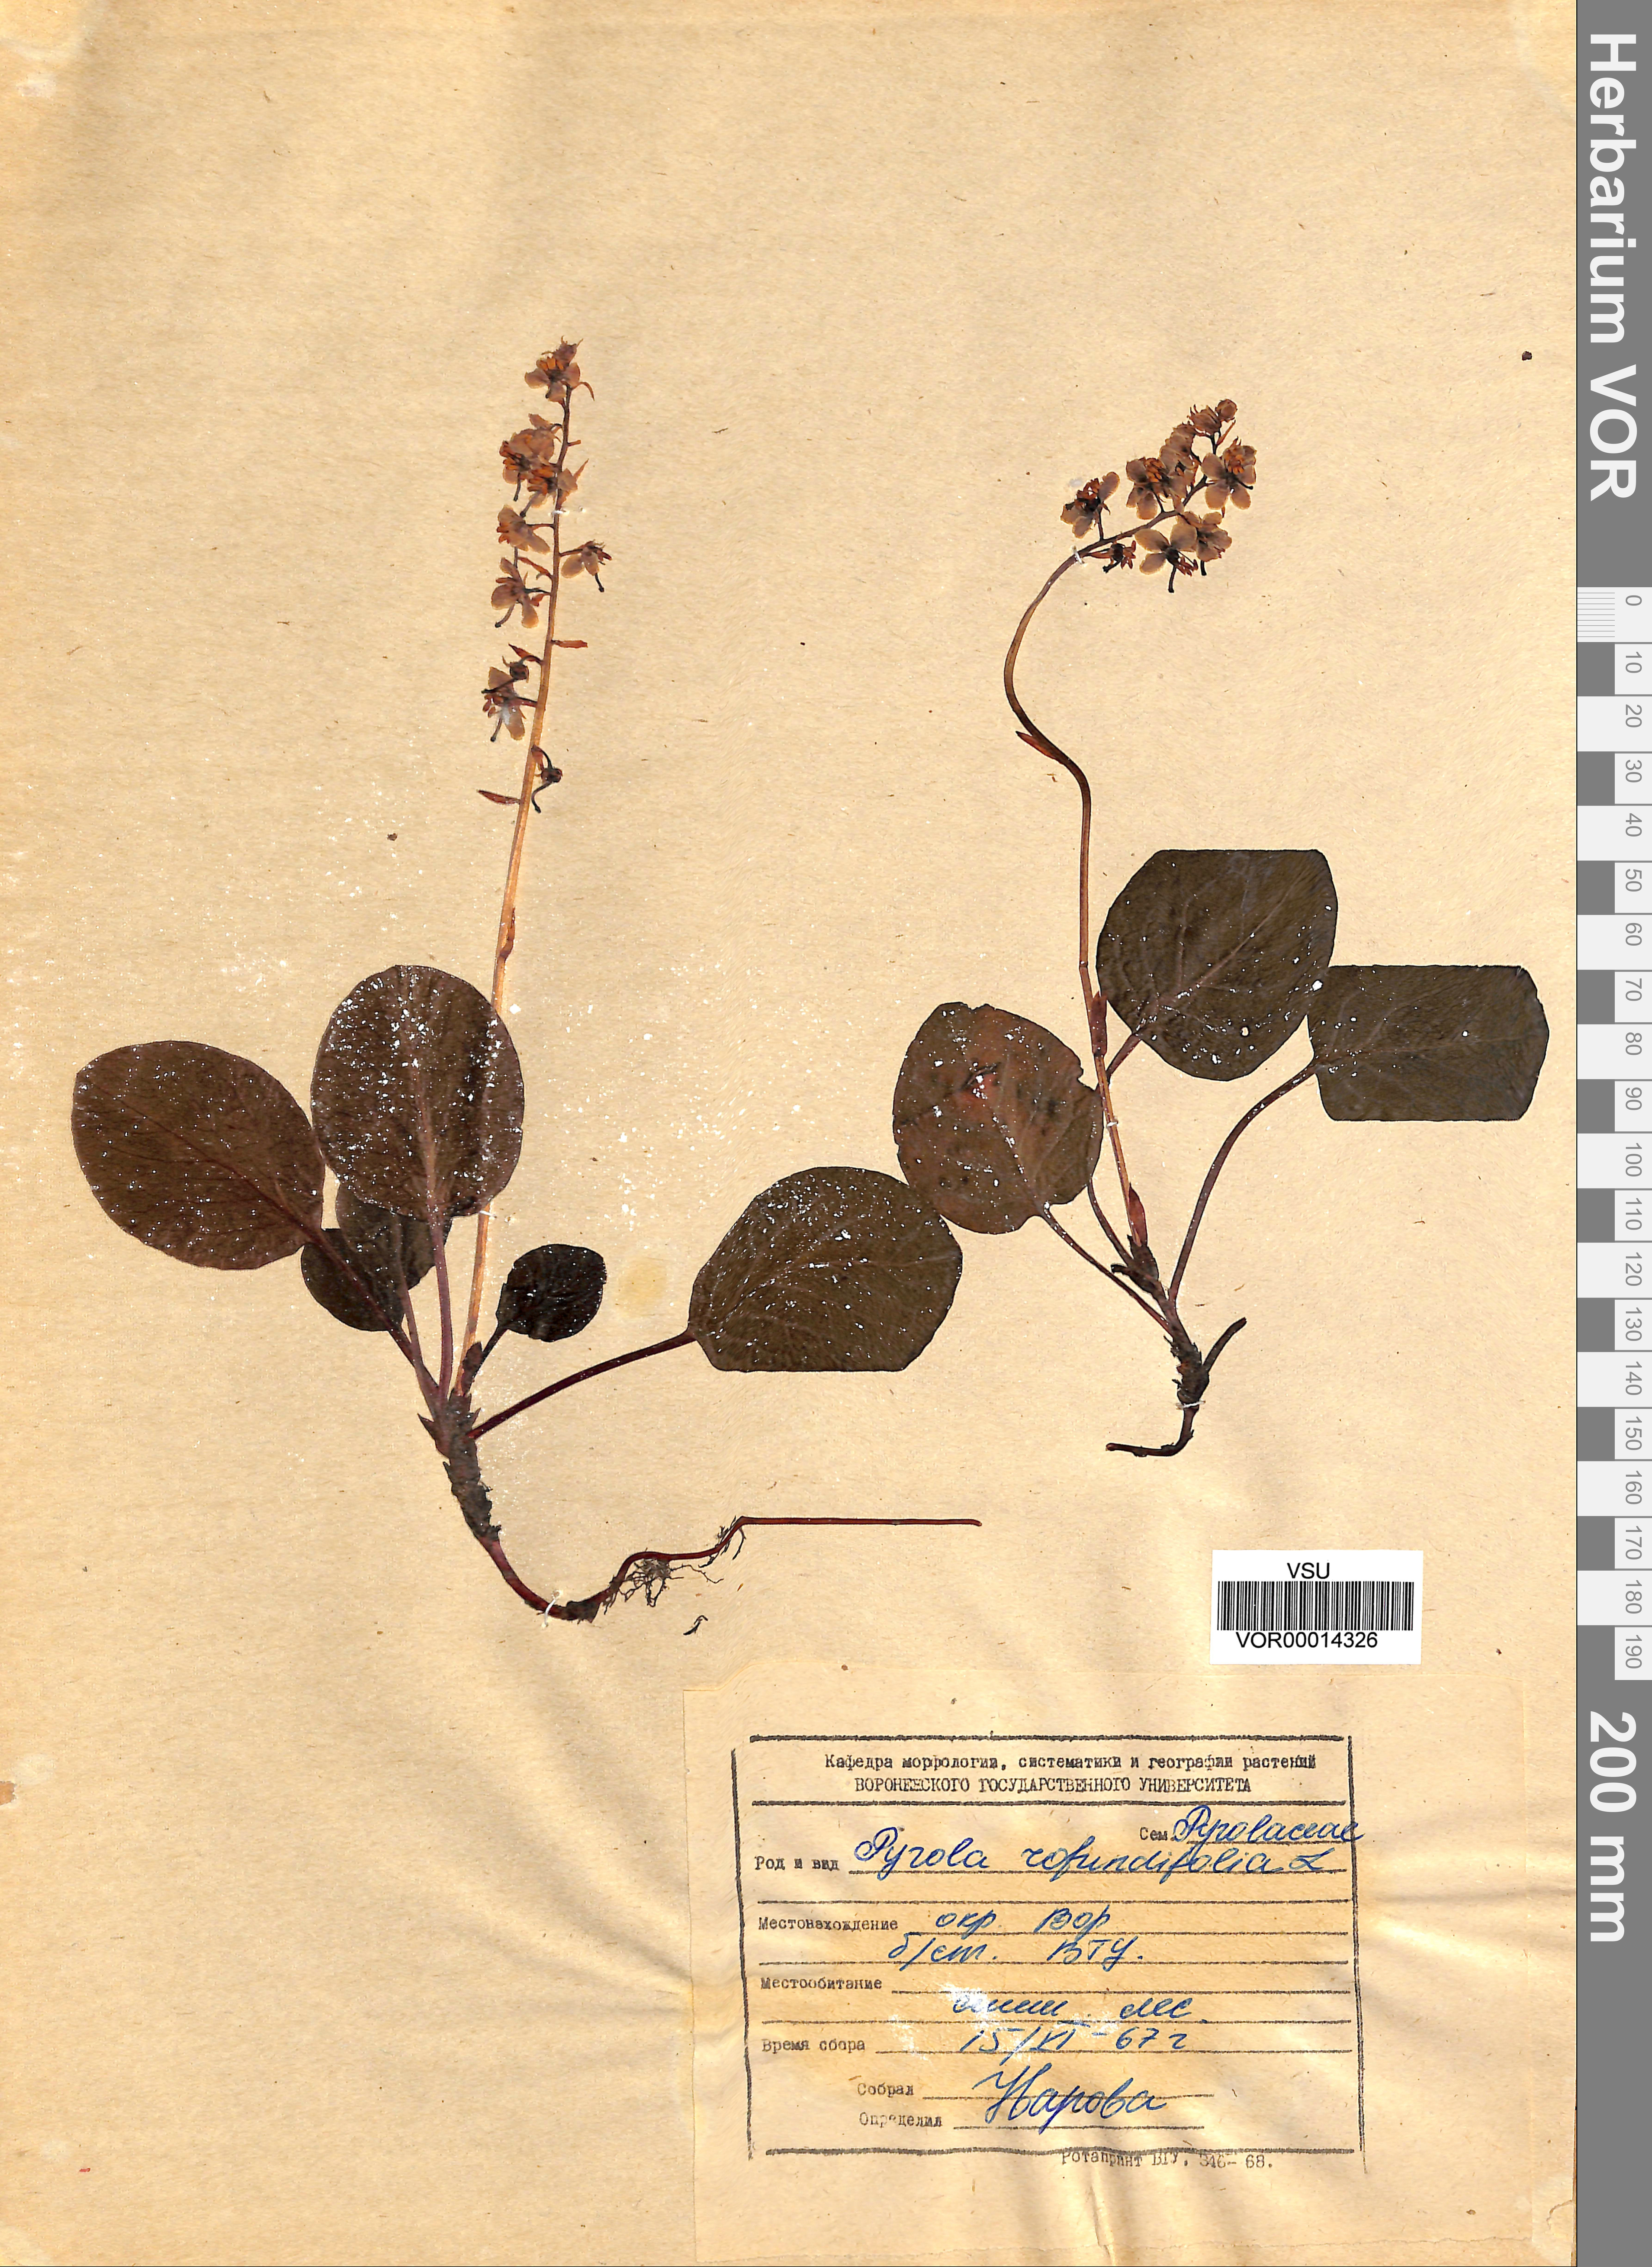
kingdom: Plantae
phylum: Tracheophyta
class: Magnoliopsida
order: Ericales
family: Ericaceae
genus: Pyrola
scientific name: Pyrola rotundifolia
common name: Round-leaved wintergreen
